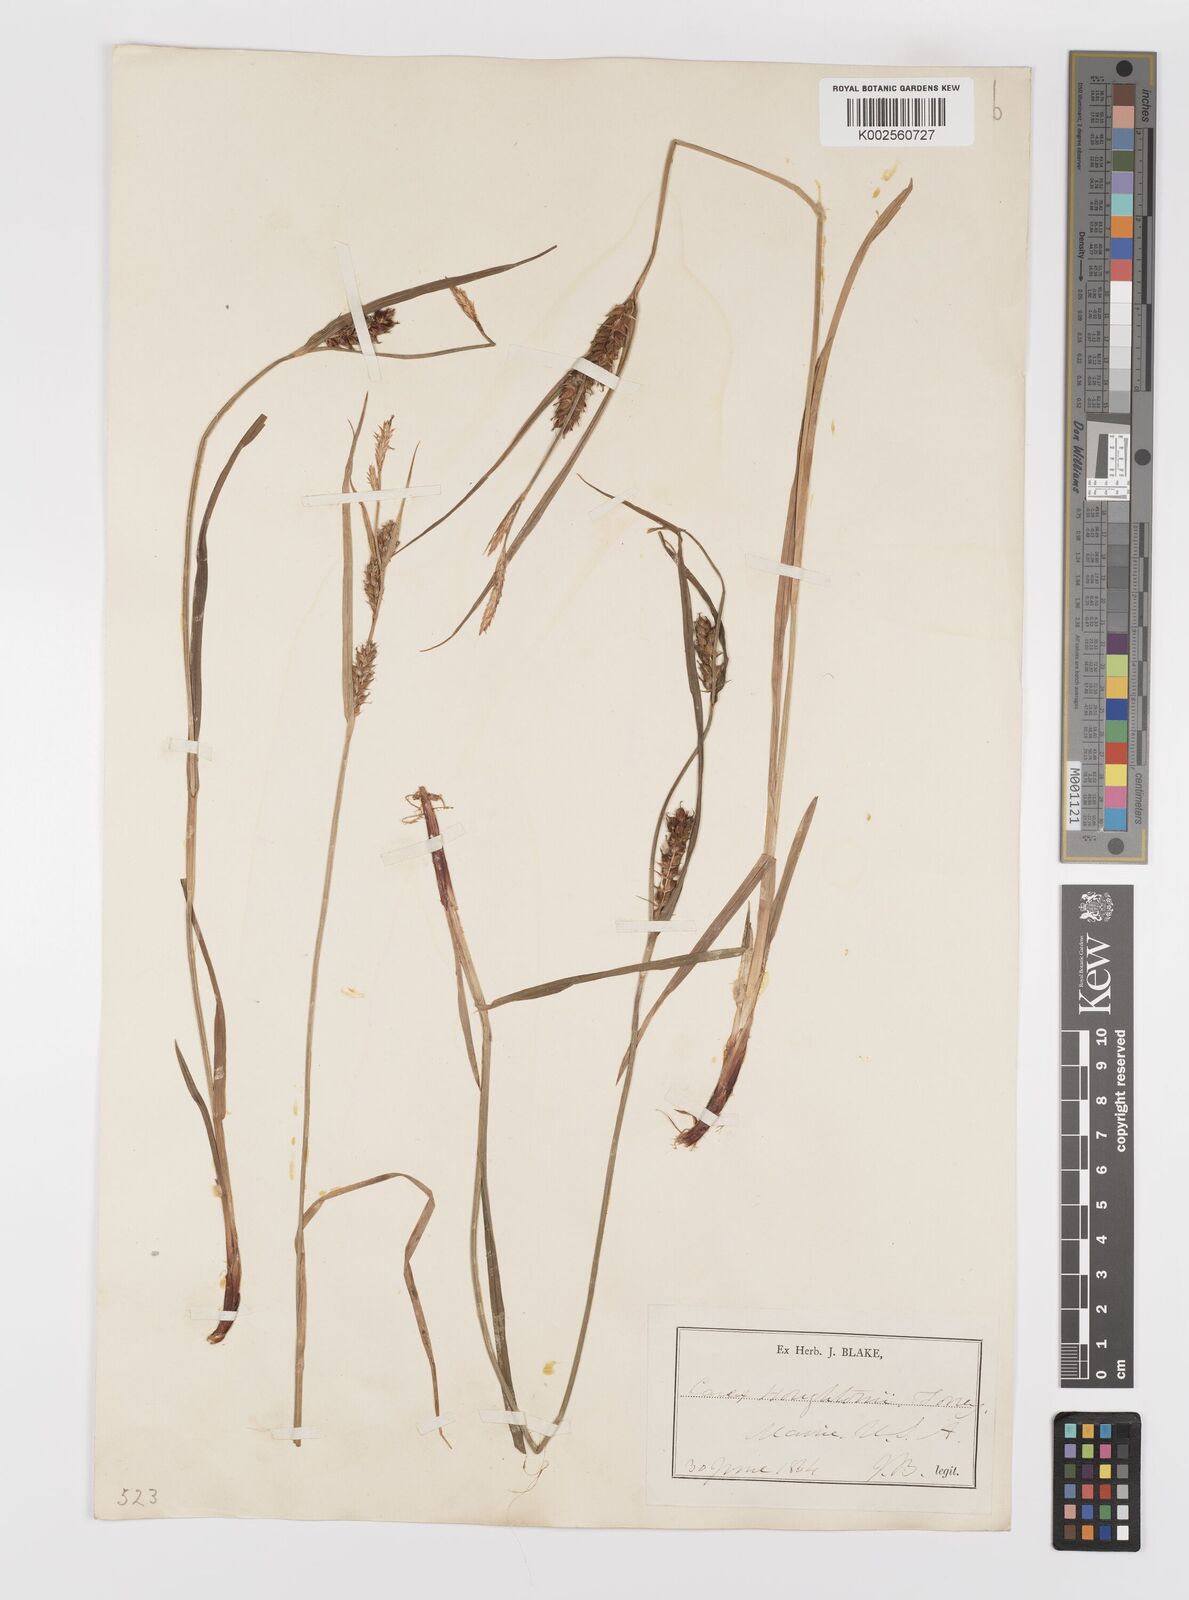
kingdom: Plantae
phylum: Tracheophyta
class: Liliopsida
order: Poales
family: Cyperaceae
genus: Carex
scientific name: Carex houghtoniana
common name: Houghton's sedge
